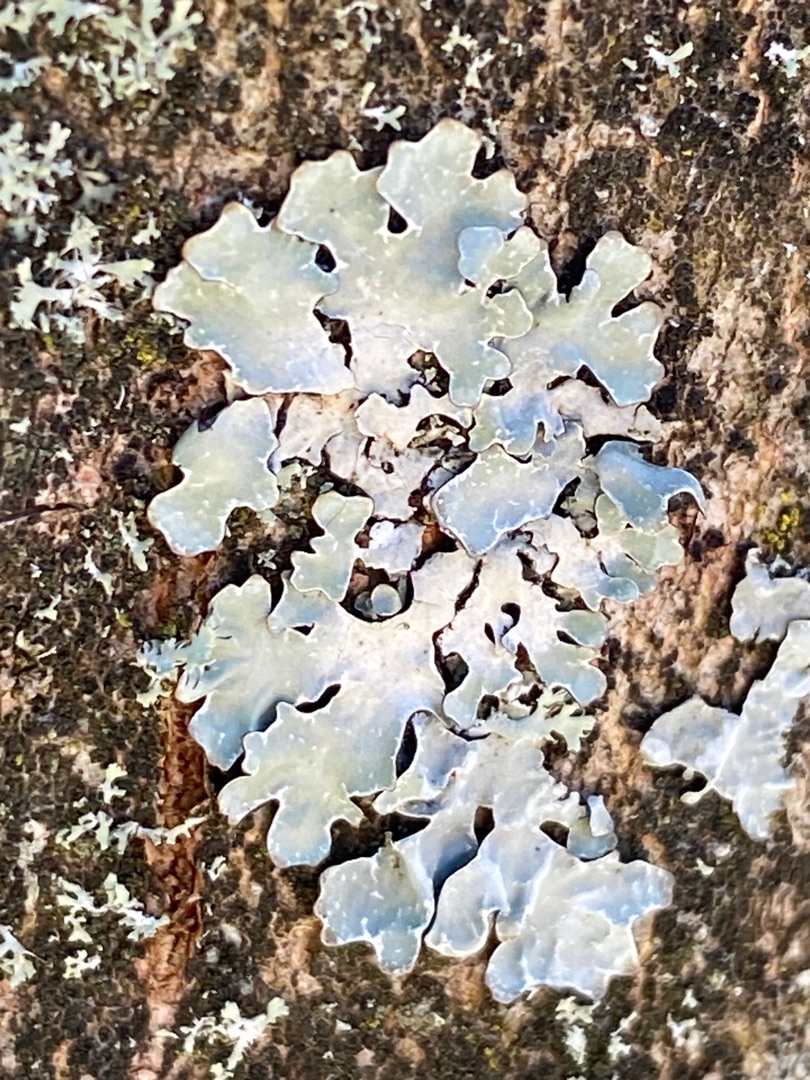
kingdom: Fungi
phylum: Ascomycota
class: Lecanoromycetes
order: Lecanorales
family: Parmeliaceae
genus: Parmelia
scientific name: Parmelia sulcata
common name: Rynket skållav
